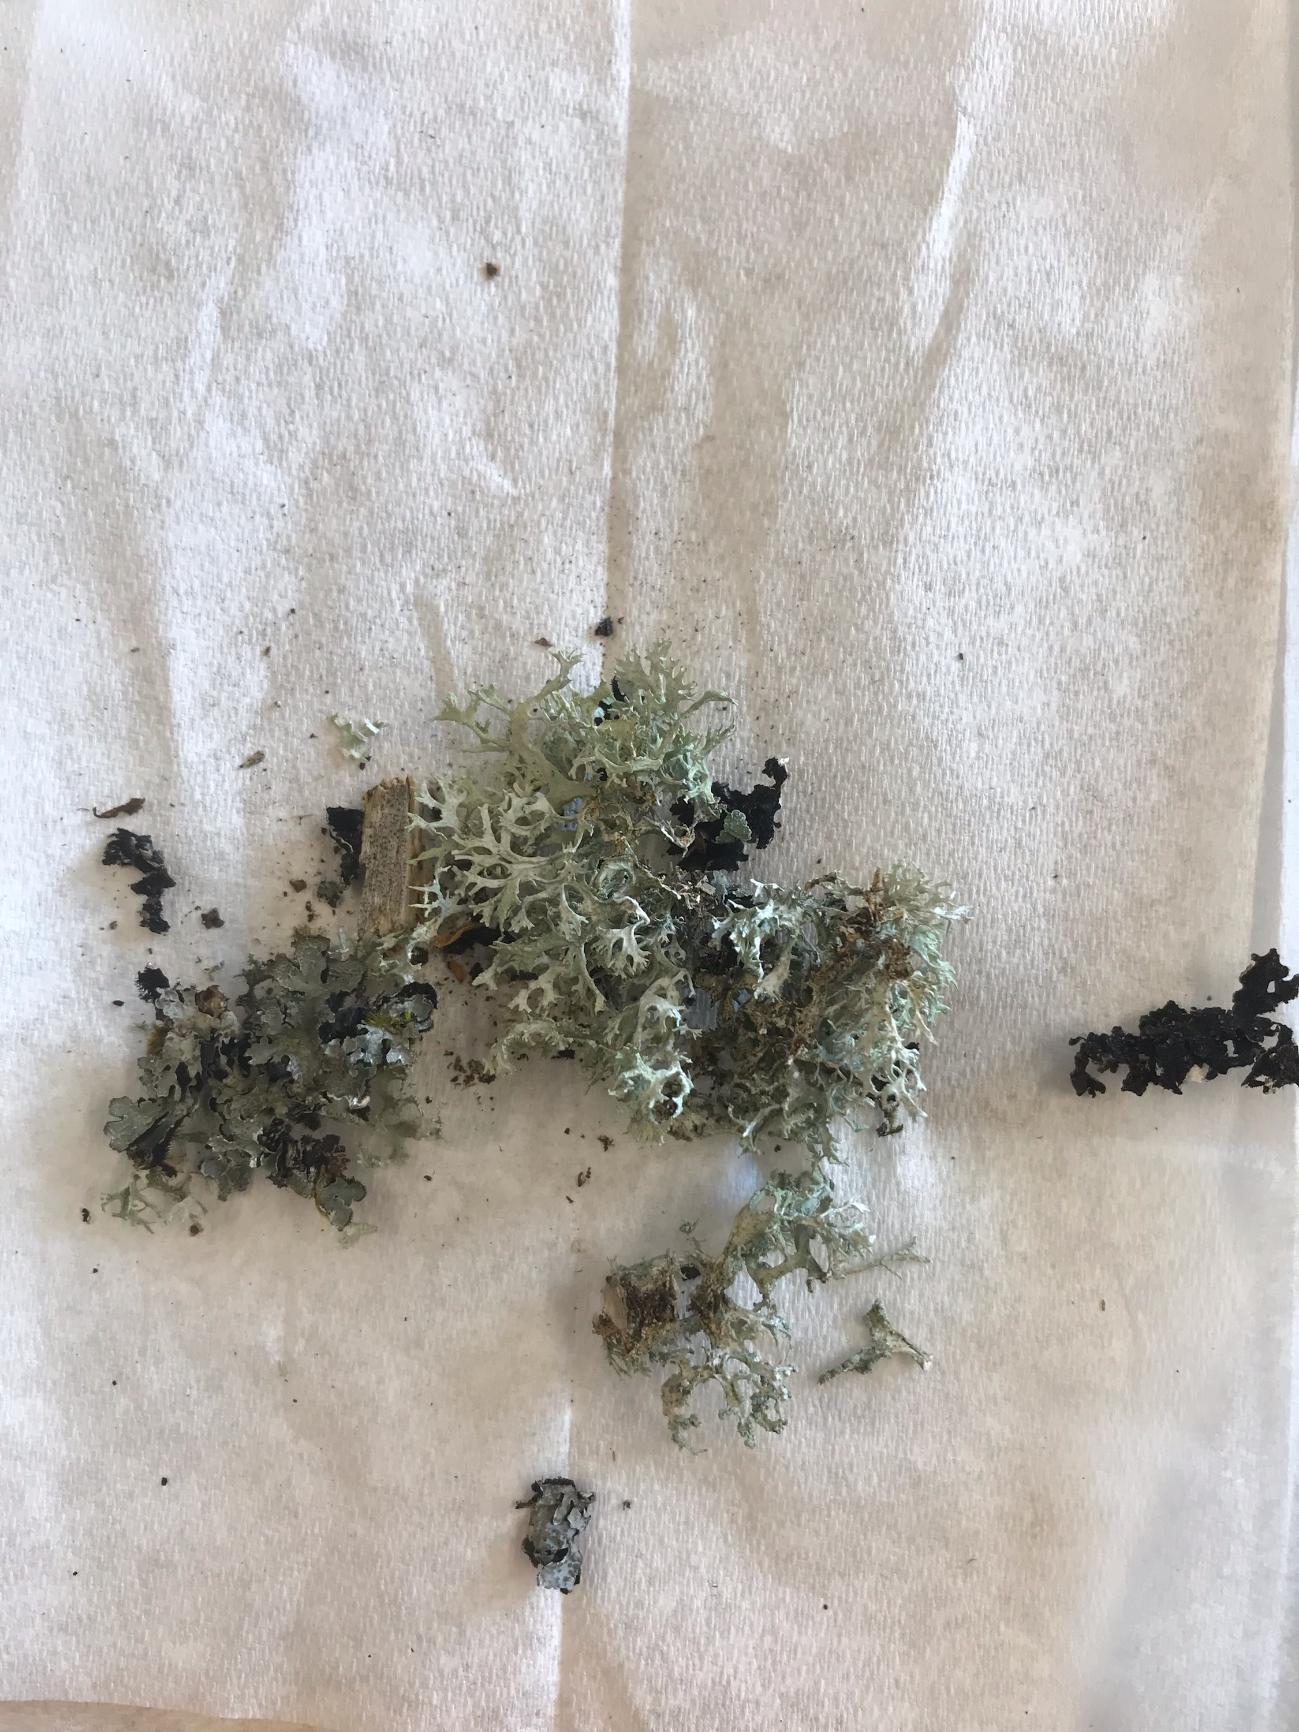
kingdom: Fungi
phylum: Ascomycota
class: Lecanoromycetes
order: Lecanorales
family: Parmeliaceae
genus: Evernia
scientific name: Evernia prunastri
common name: Almindelig slåenlav
